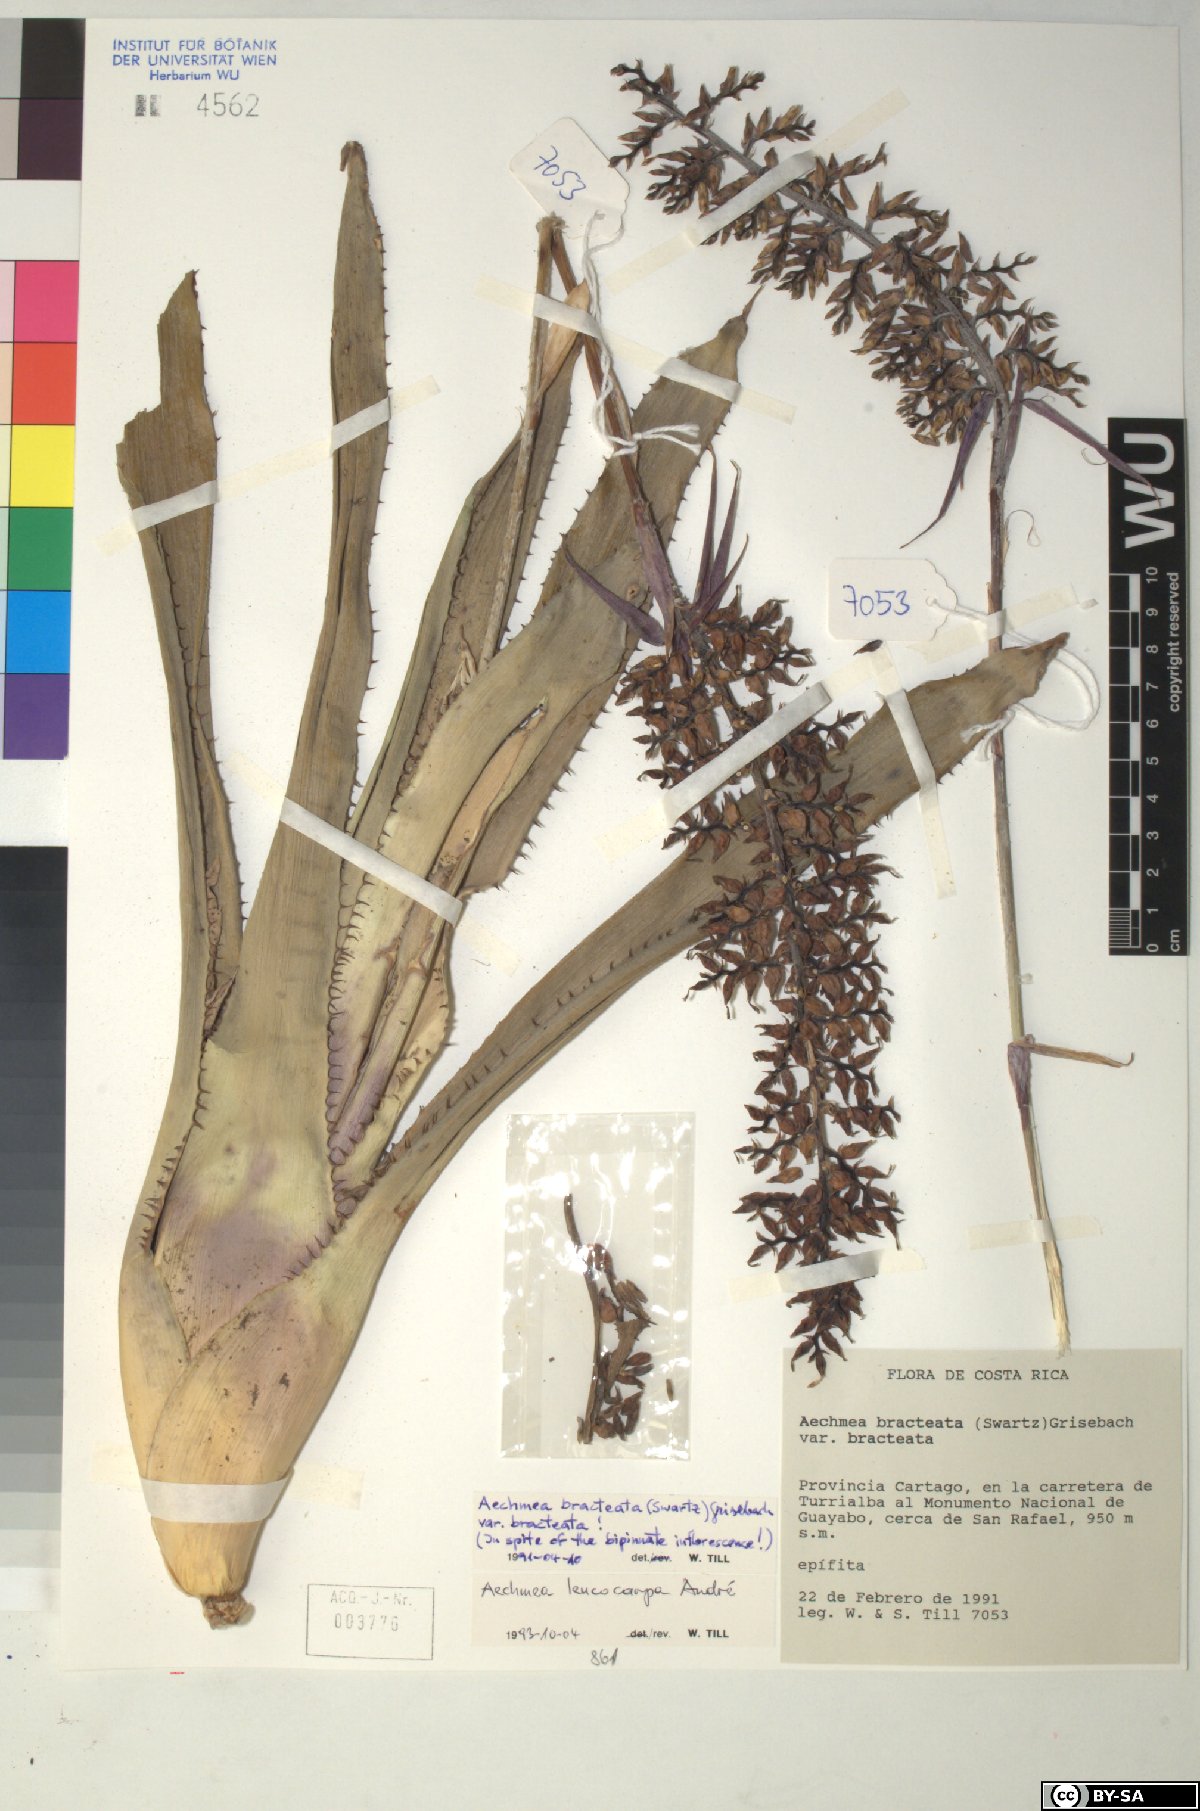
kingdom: Plantae
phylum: Tracheophyta
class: Liliopsida
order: Poales
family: Bromeliaceae
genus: Aechmea
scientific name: Aechmea angustifolia
